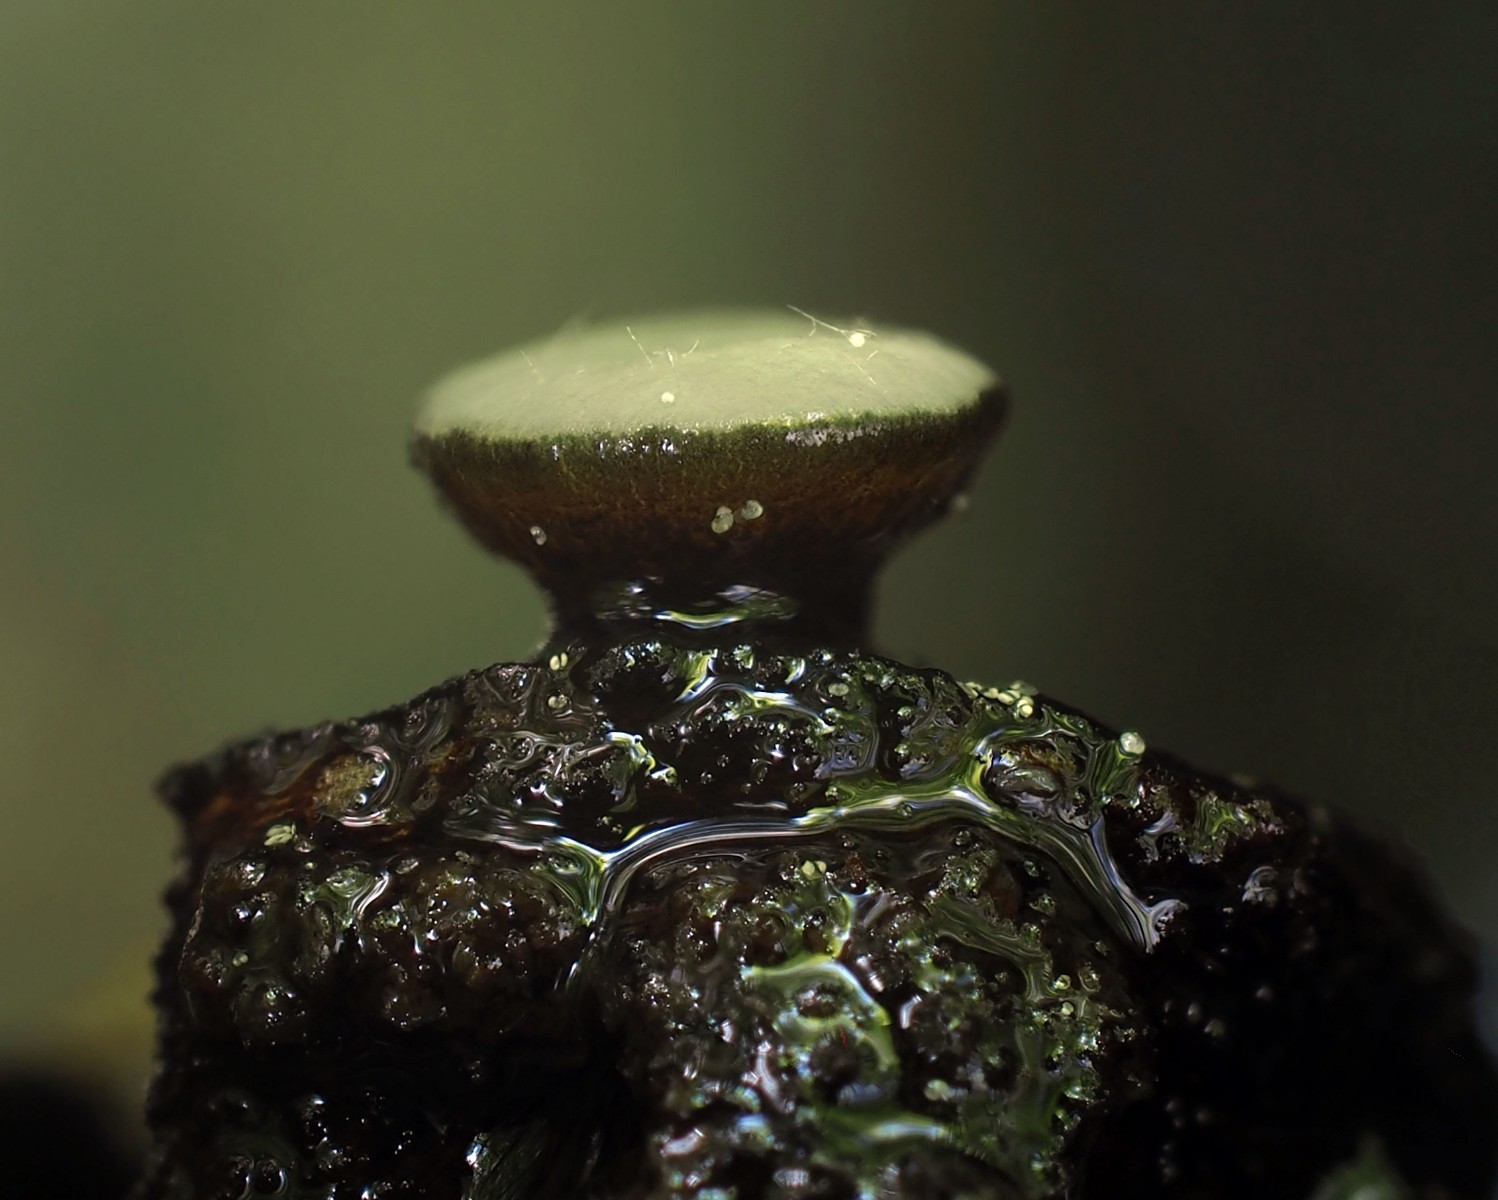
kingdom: Fungi
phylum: Ascomycota
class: Leotiomycetes
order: Helotiales
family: Vibrisseaceae
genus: Vibrissea
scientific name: Vibrissea flavovirens
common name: gulgrøn bækskive
